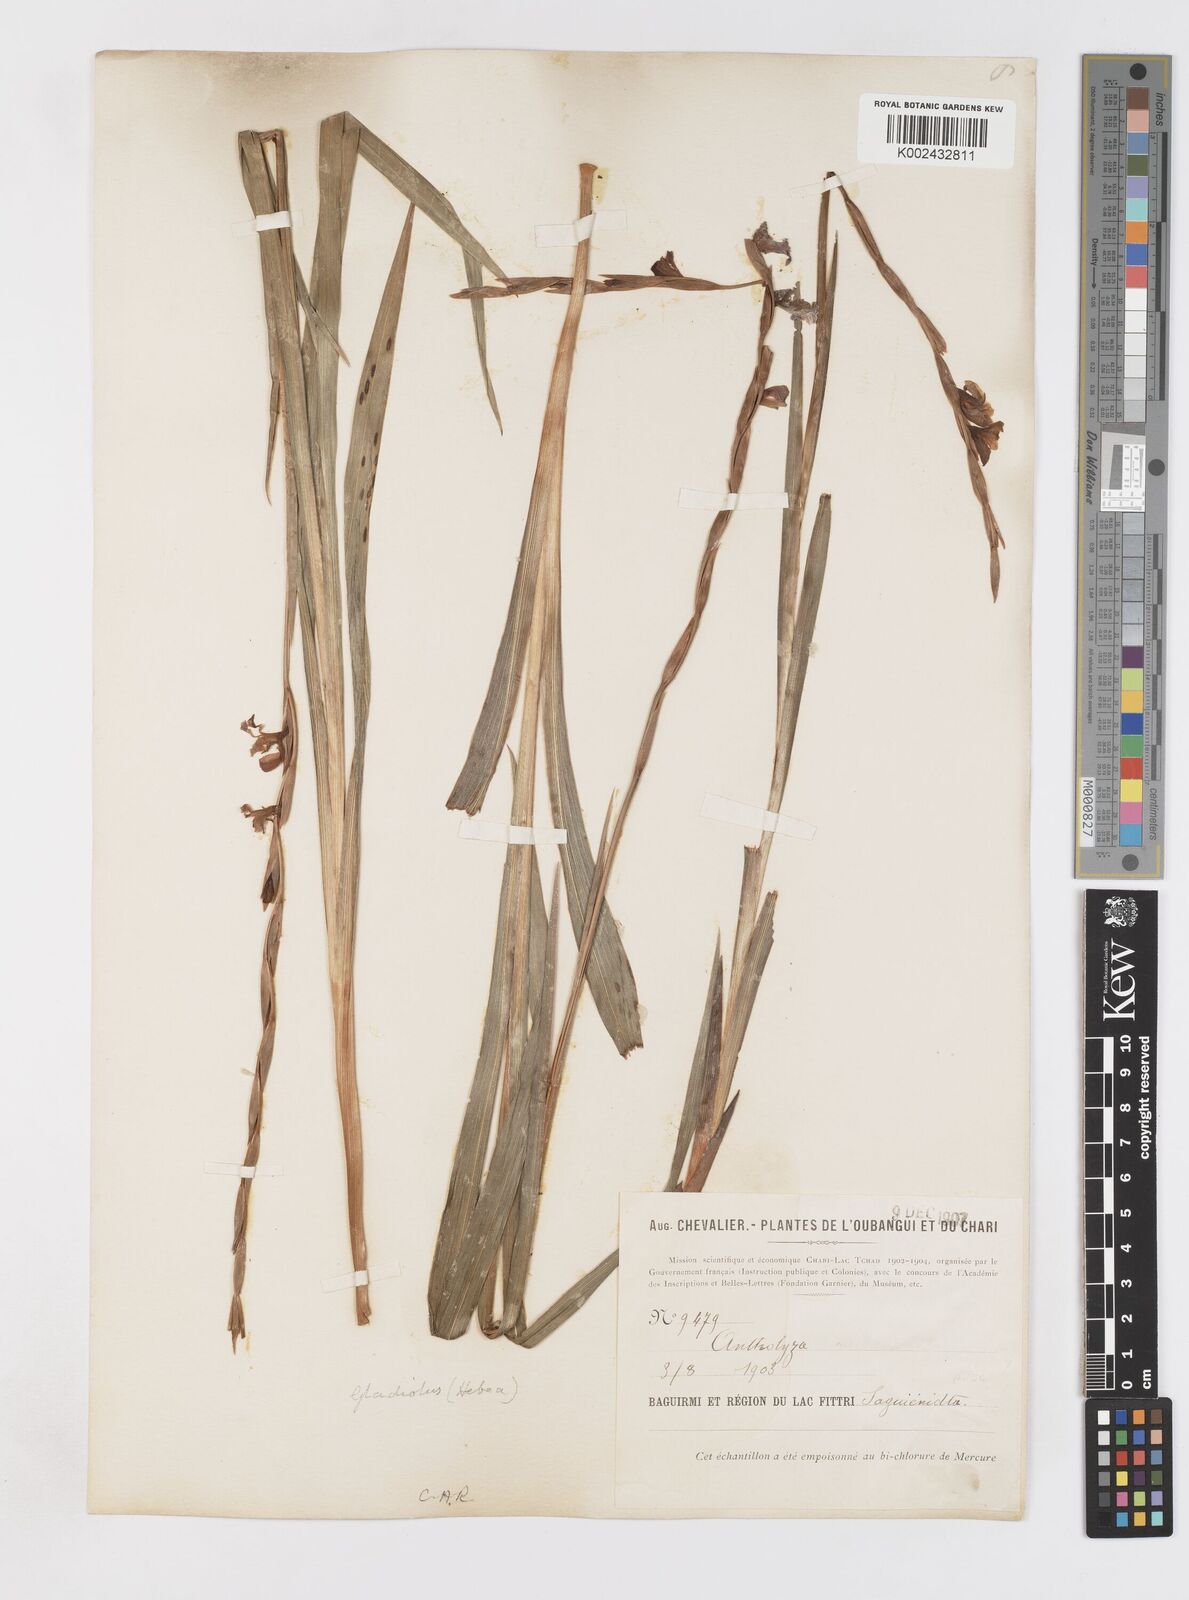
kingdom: Plantae
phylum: Tracheophyta
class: Liliopsida
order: Asparagales
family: Iridaceae
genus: Gladiolus
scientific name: Gladiolus gregarius
